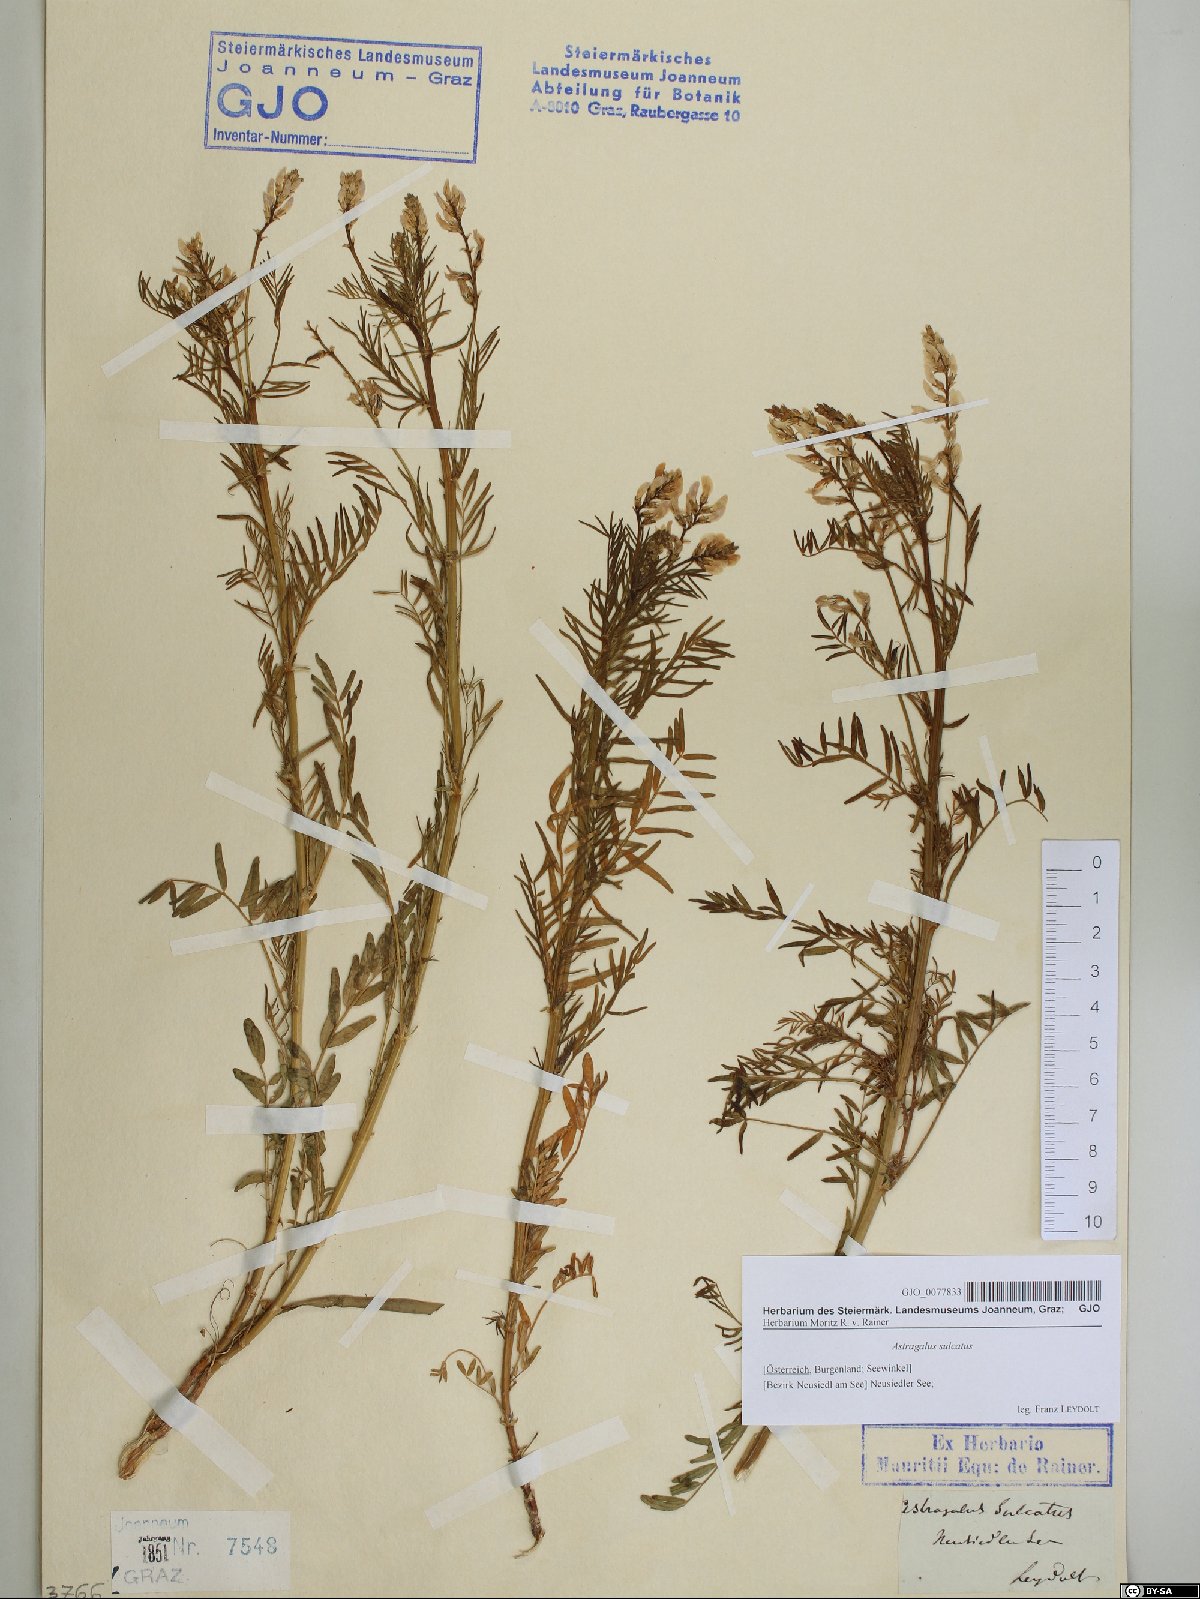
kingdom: Plantae
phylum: Tracheophyta
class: Magnoliopsida
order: Fabales
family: Fabaceae
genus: Astragalus
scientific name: Astragalus sulcatus
